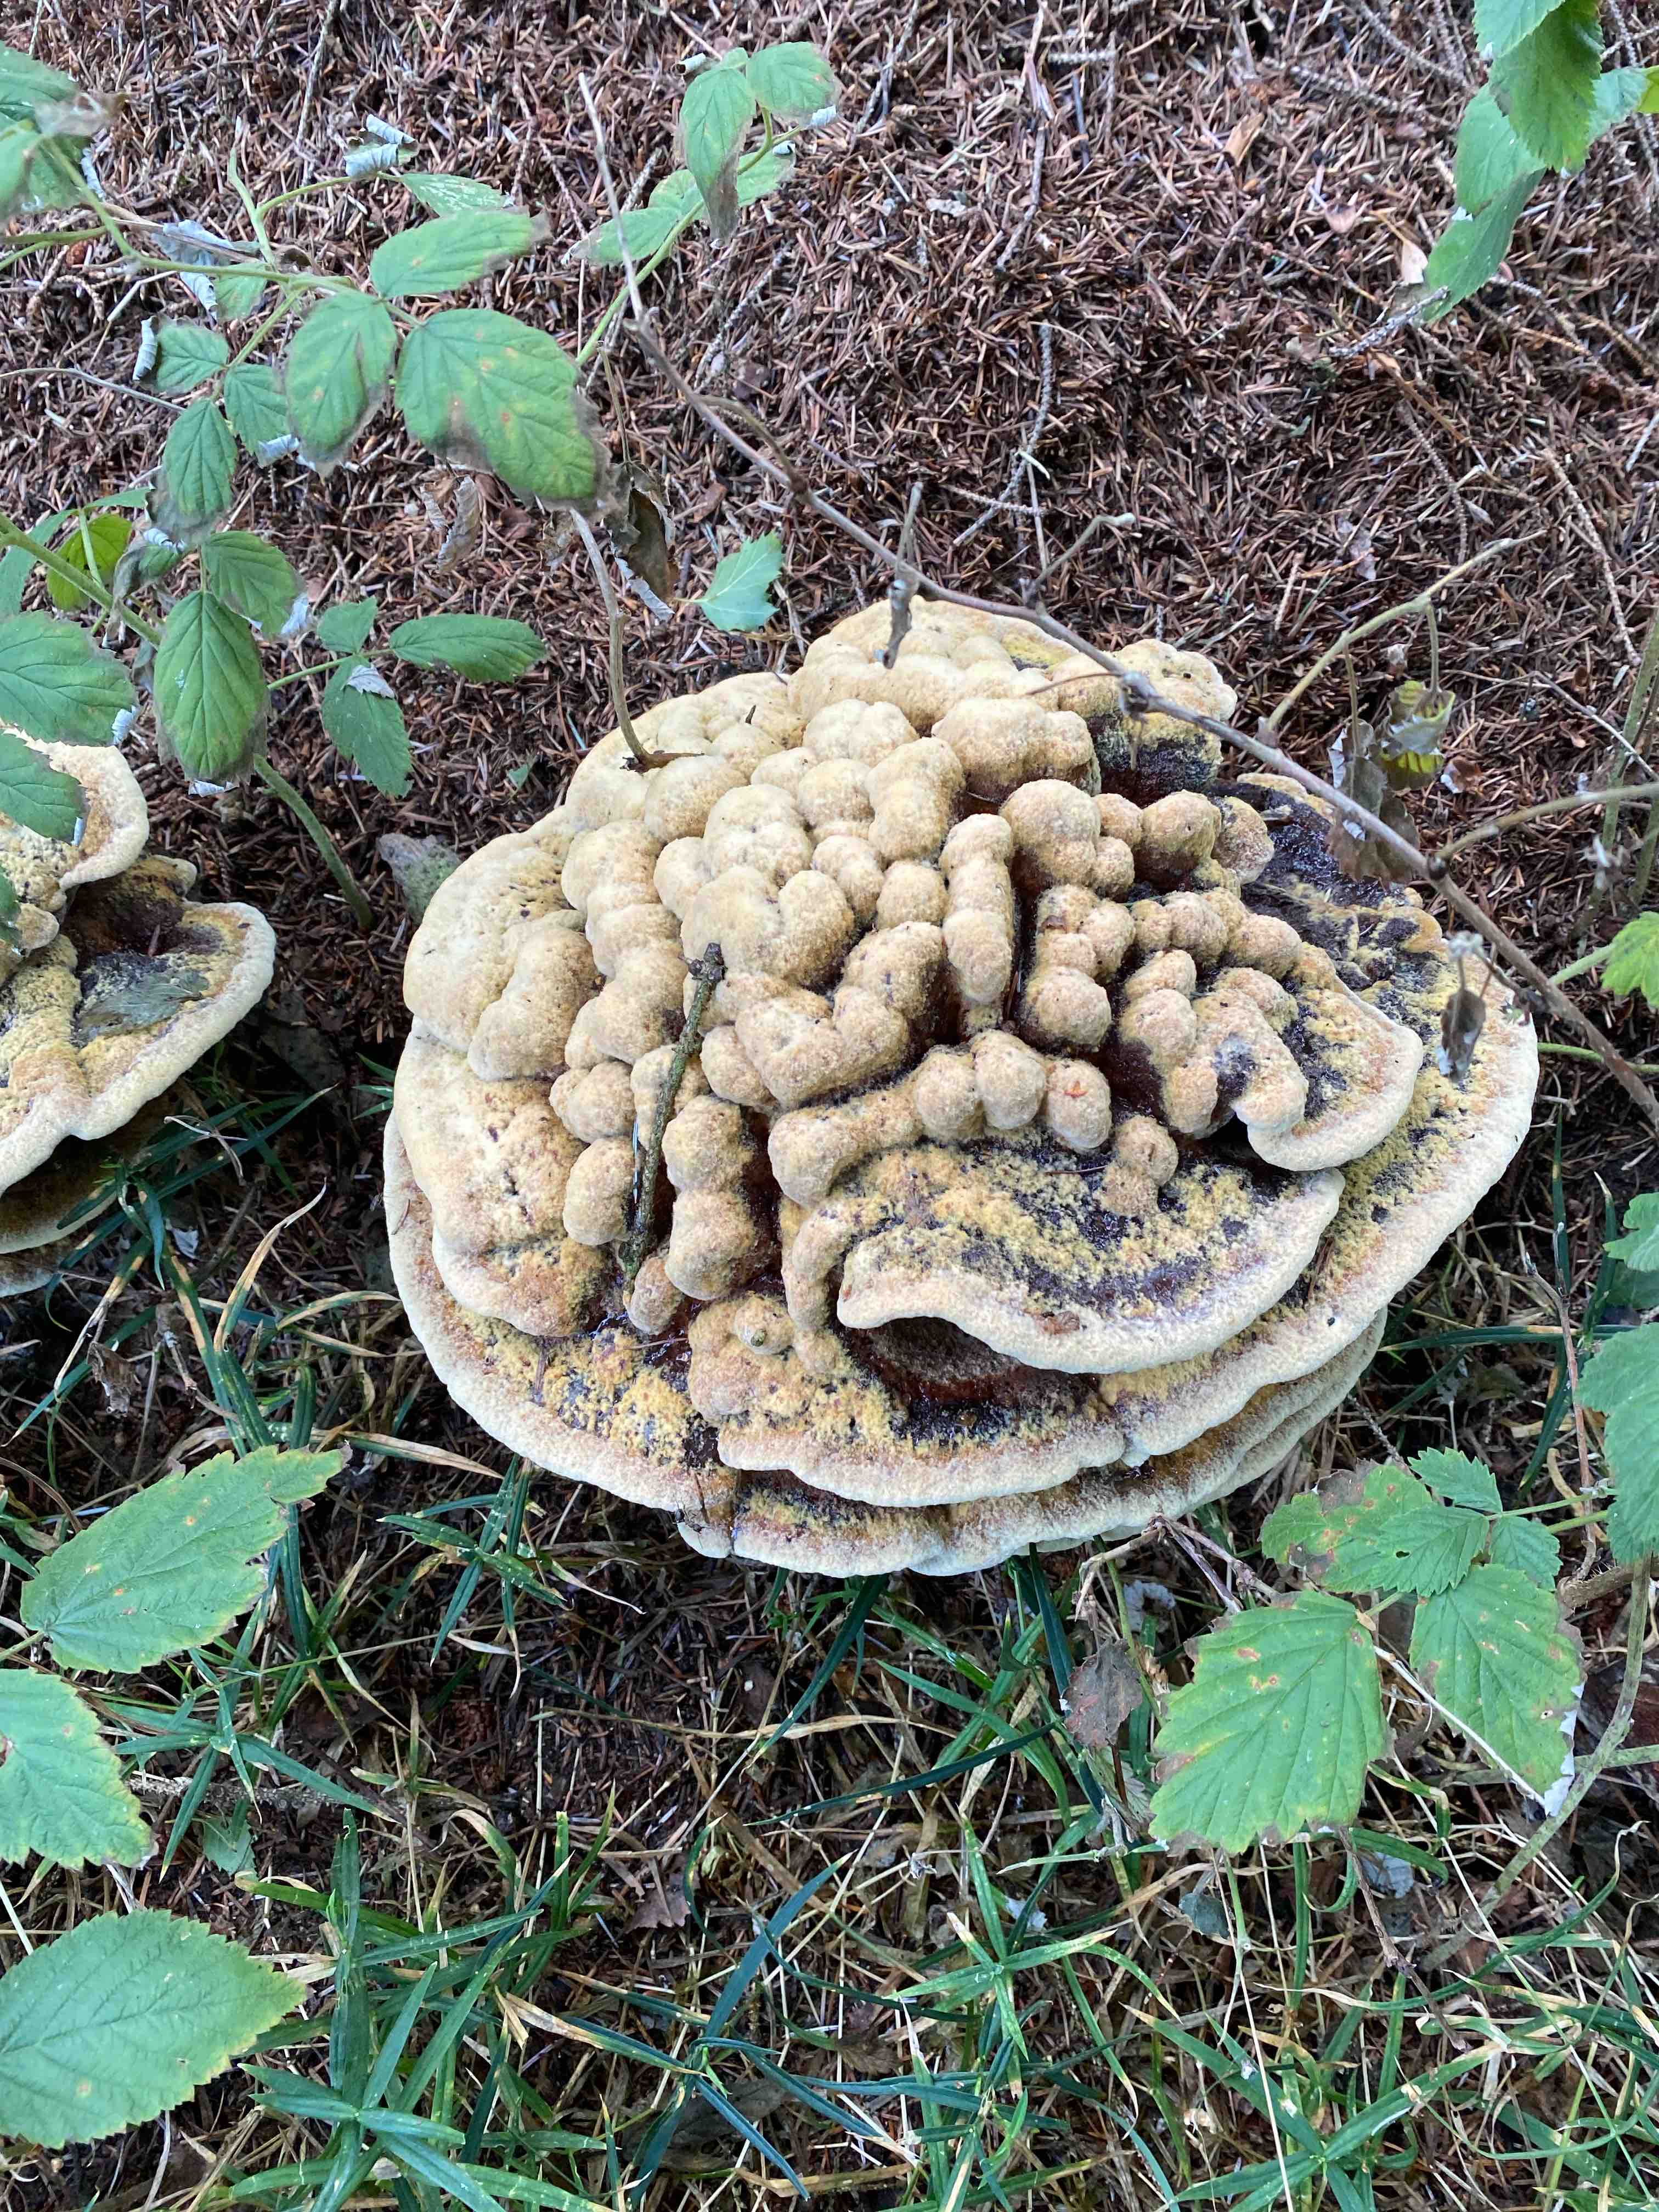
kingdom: Fungi
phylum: Basidiomycota
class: Agaricomycetes
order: Polyporales
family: Laetiporaceae
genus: Phaeolus
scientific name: Phaeolus schweinitzii
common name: brunporesvamp
